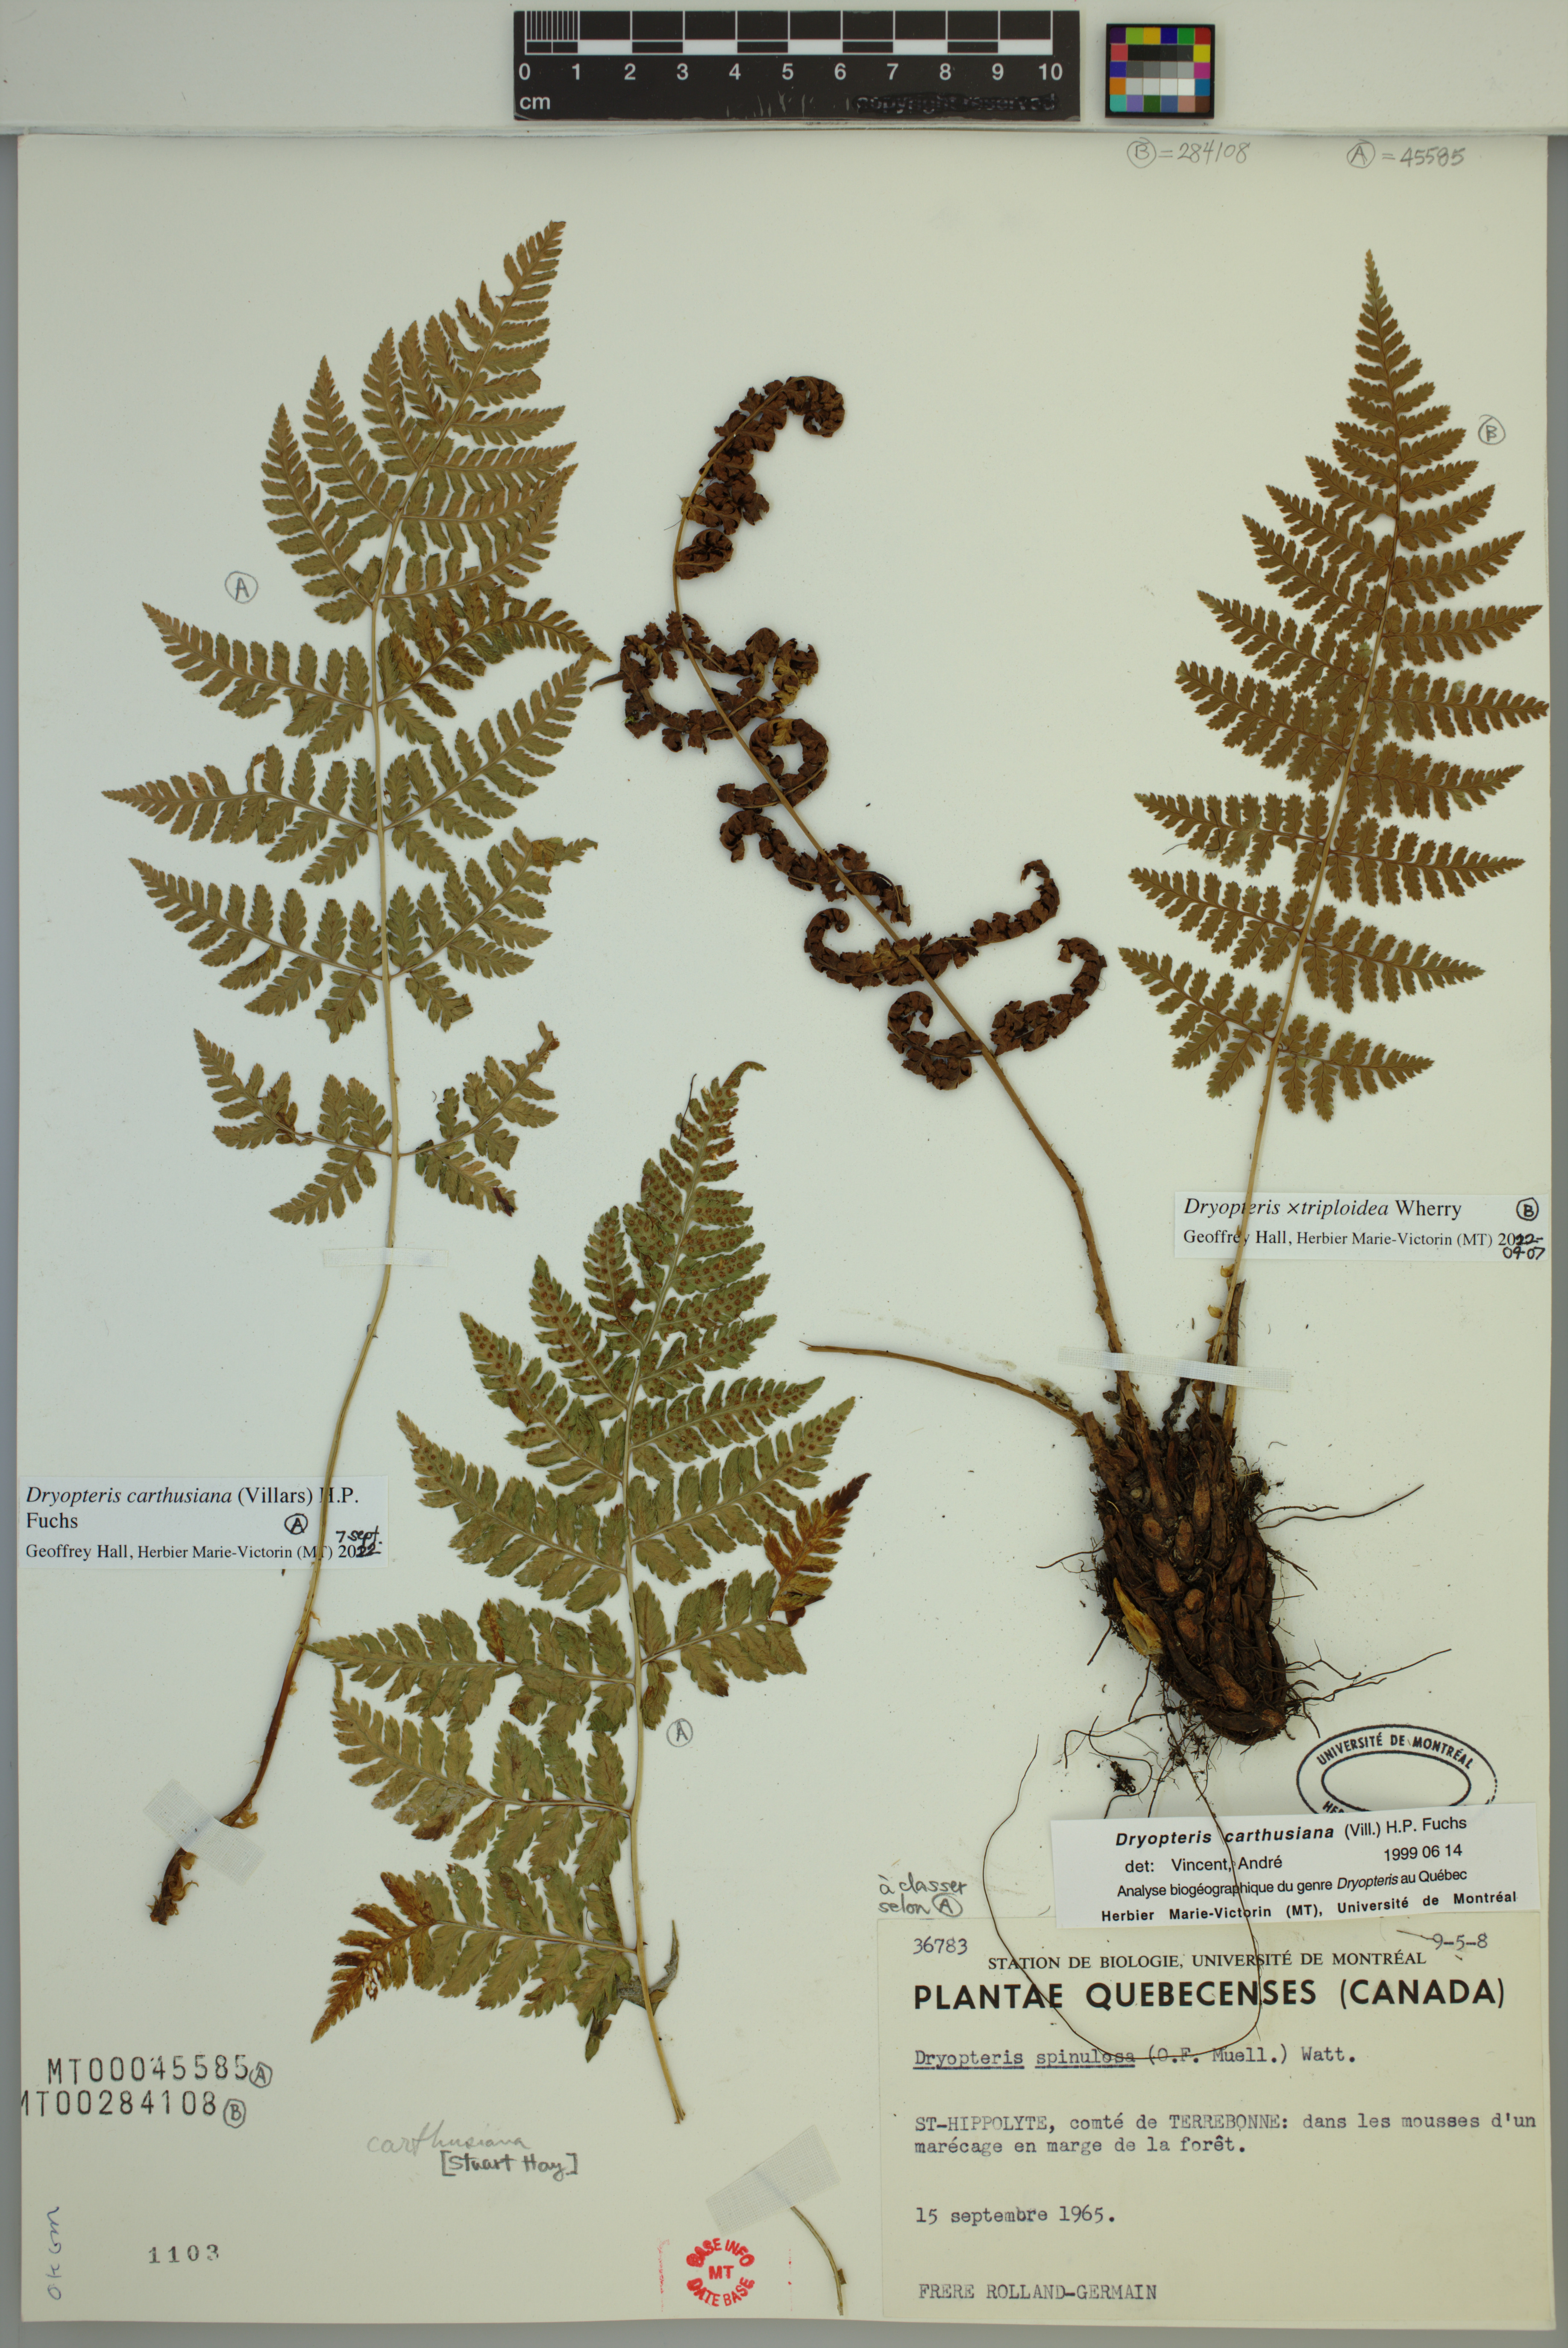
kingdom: Plantae
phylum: Tracheophyta
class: Polypodiopsida
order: Polypodiales
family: Dryopteridaceae
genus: Dryopteris
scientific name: Dryopteris carthusiana
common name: Narrow buckler-fern
